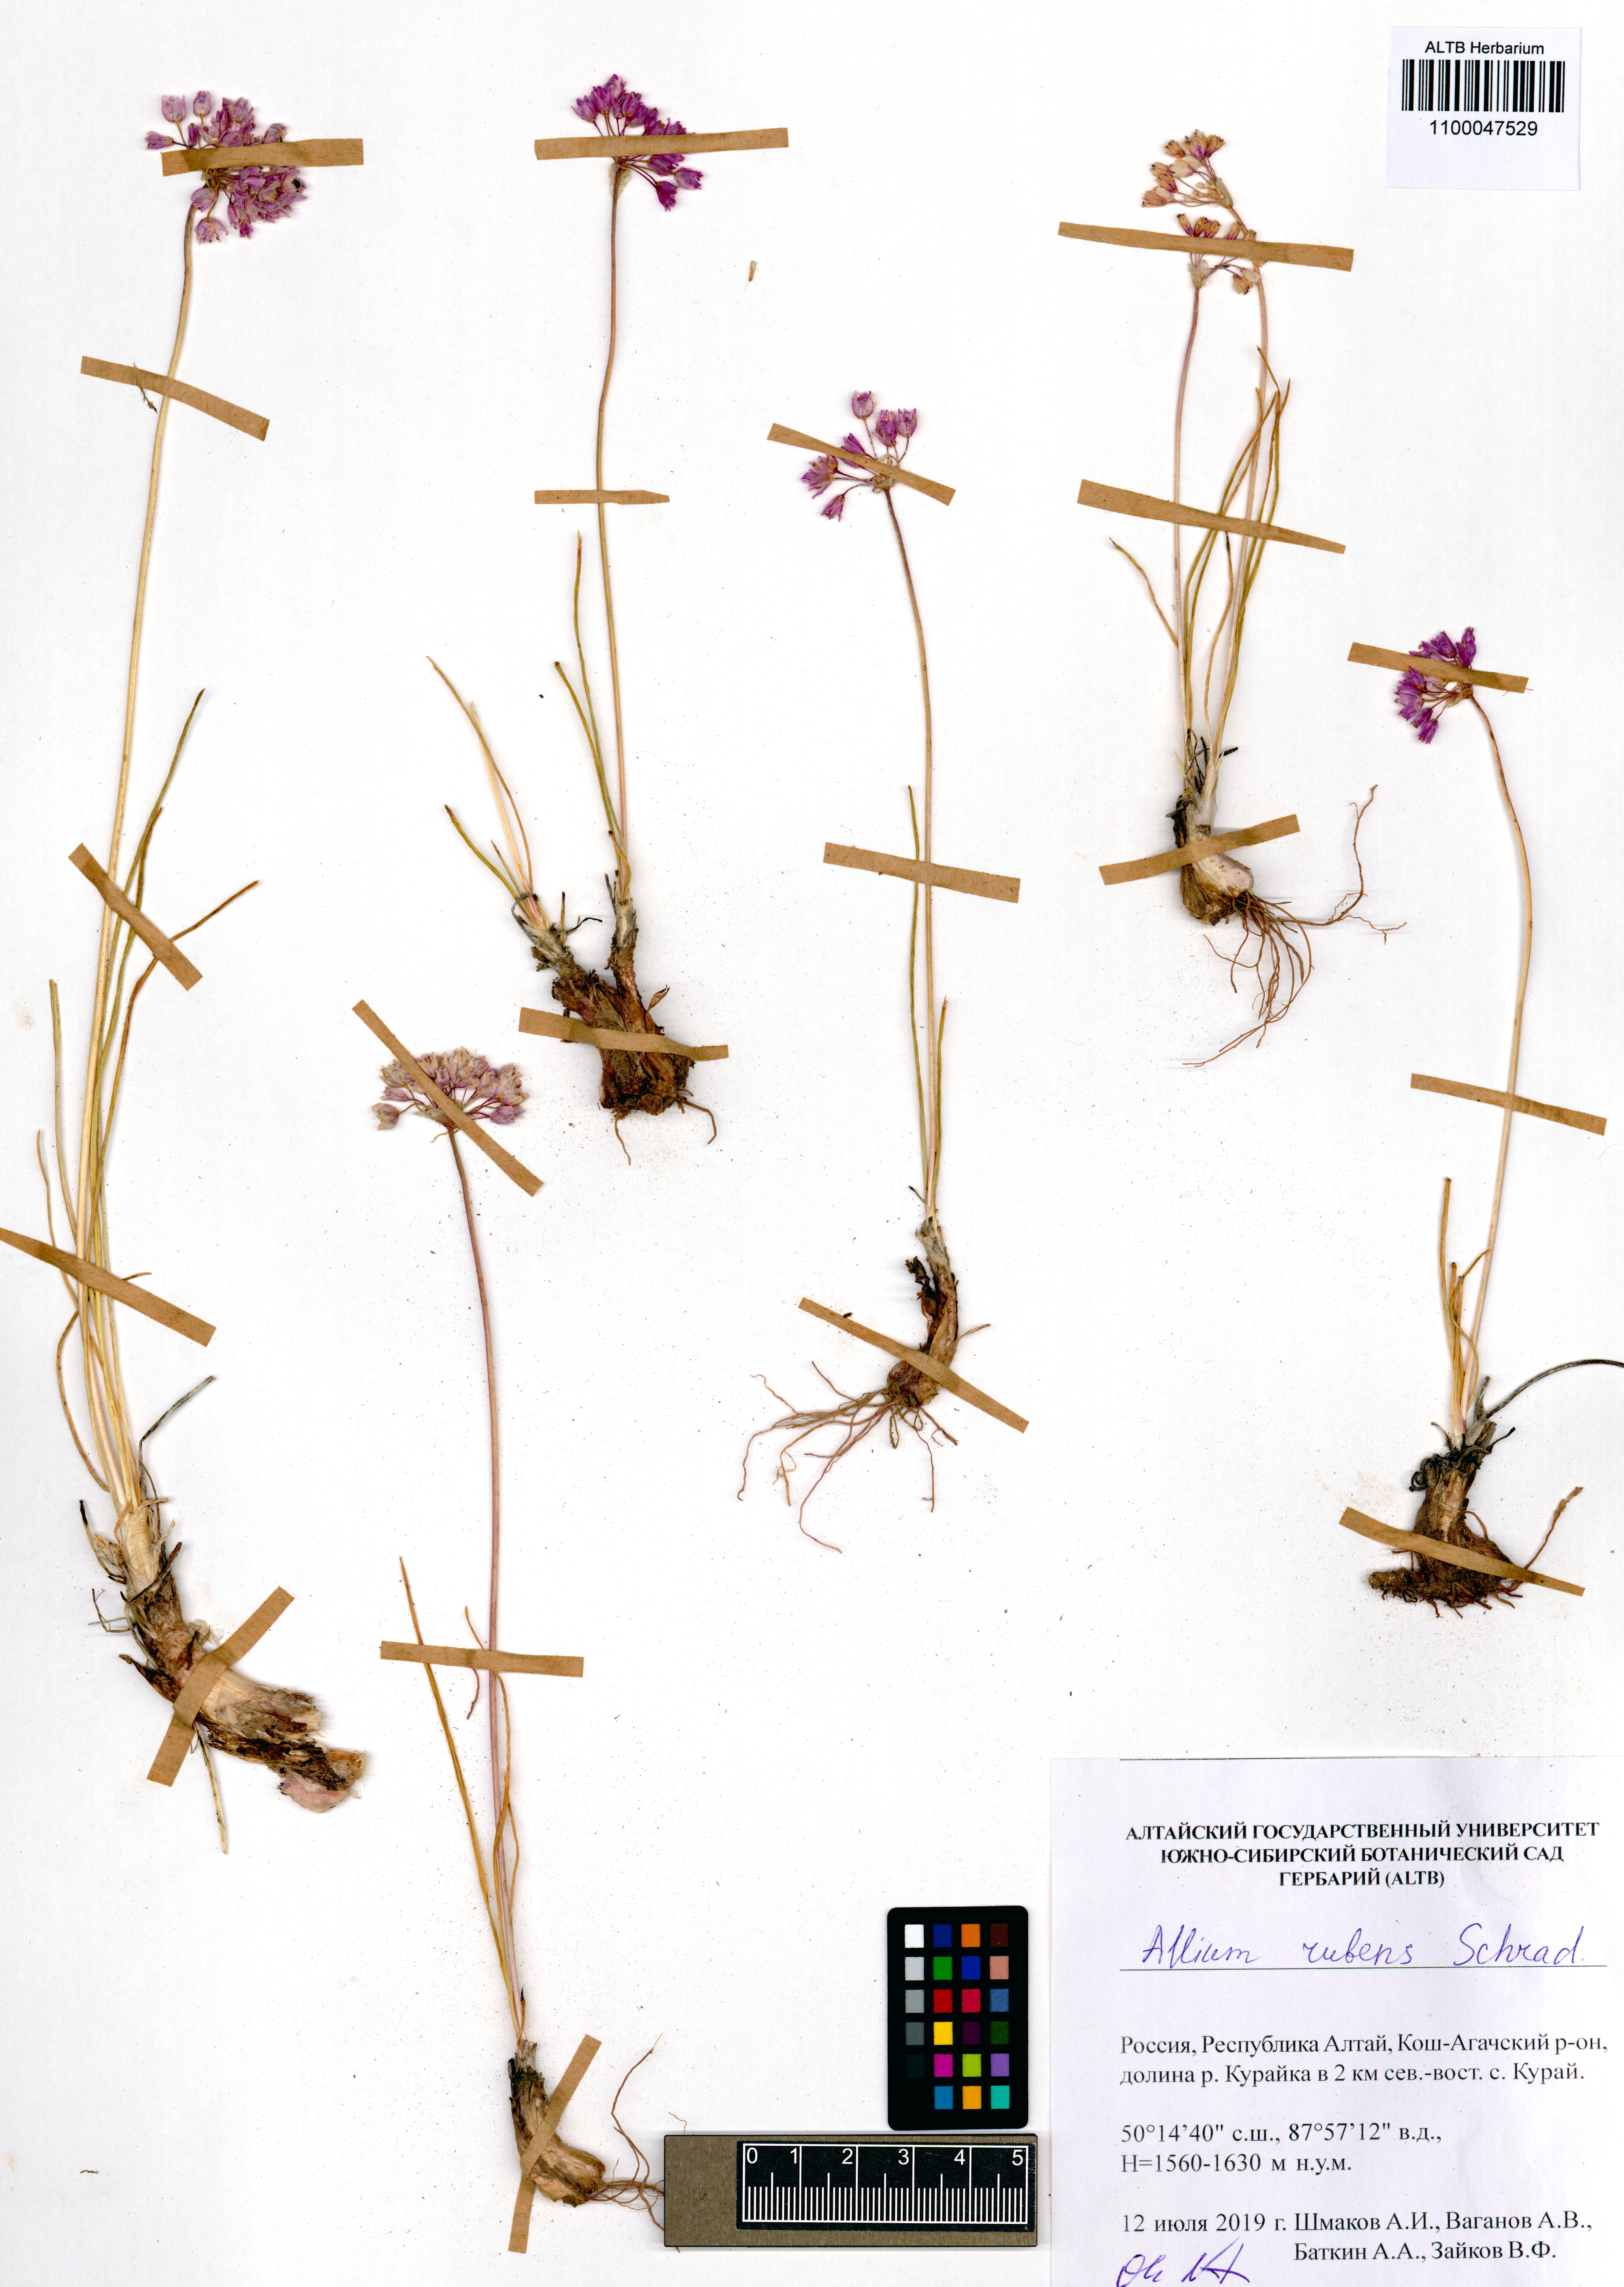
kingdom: Plantae
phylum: Tracheophyta
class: Liliopsida
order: Asparagales
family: Amaryllidaceae
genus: Allium
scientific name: Allium rubens
